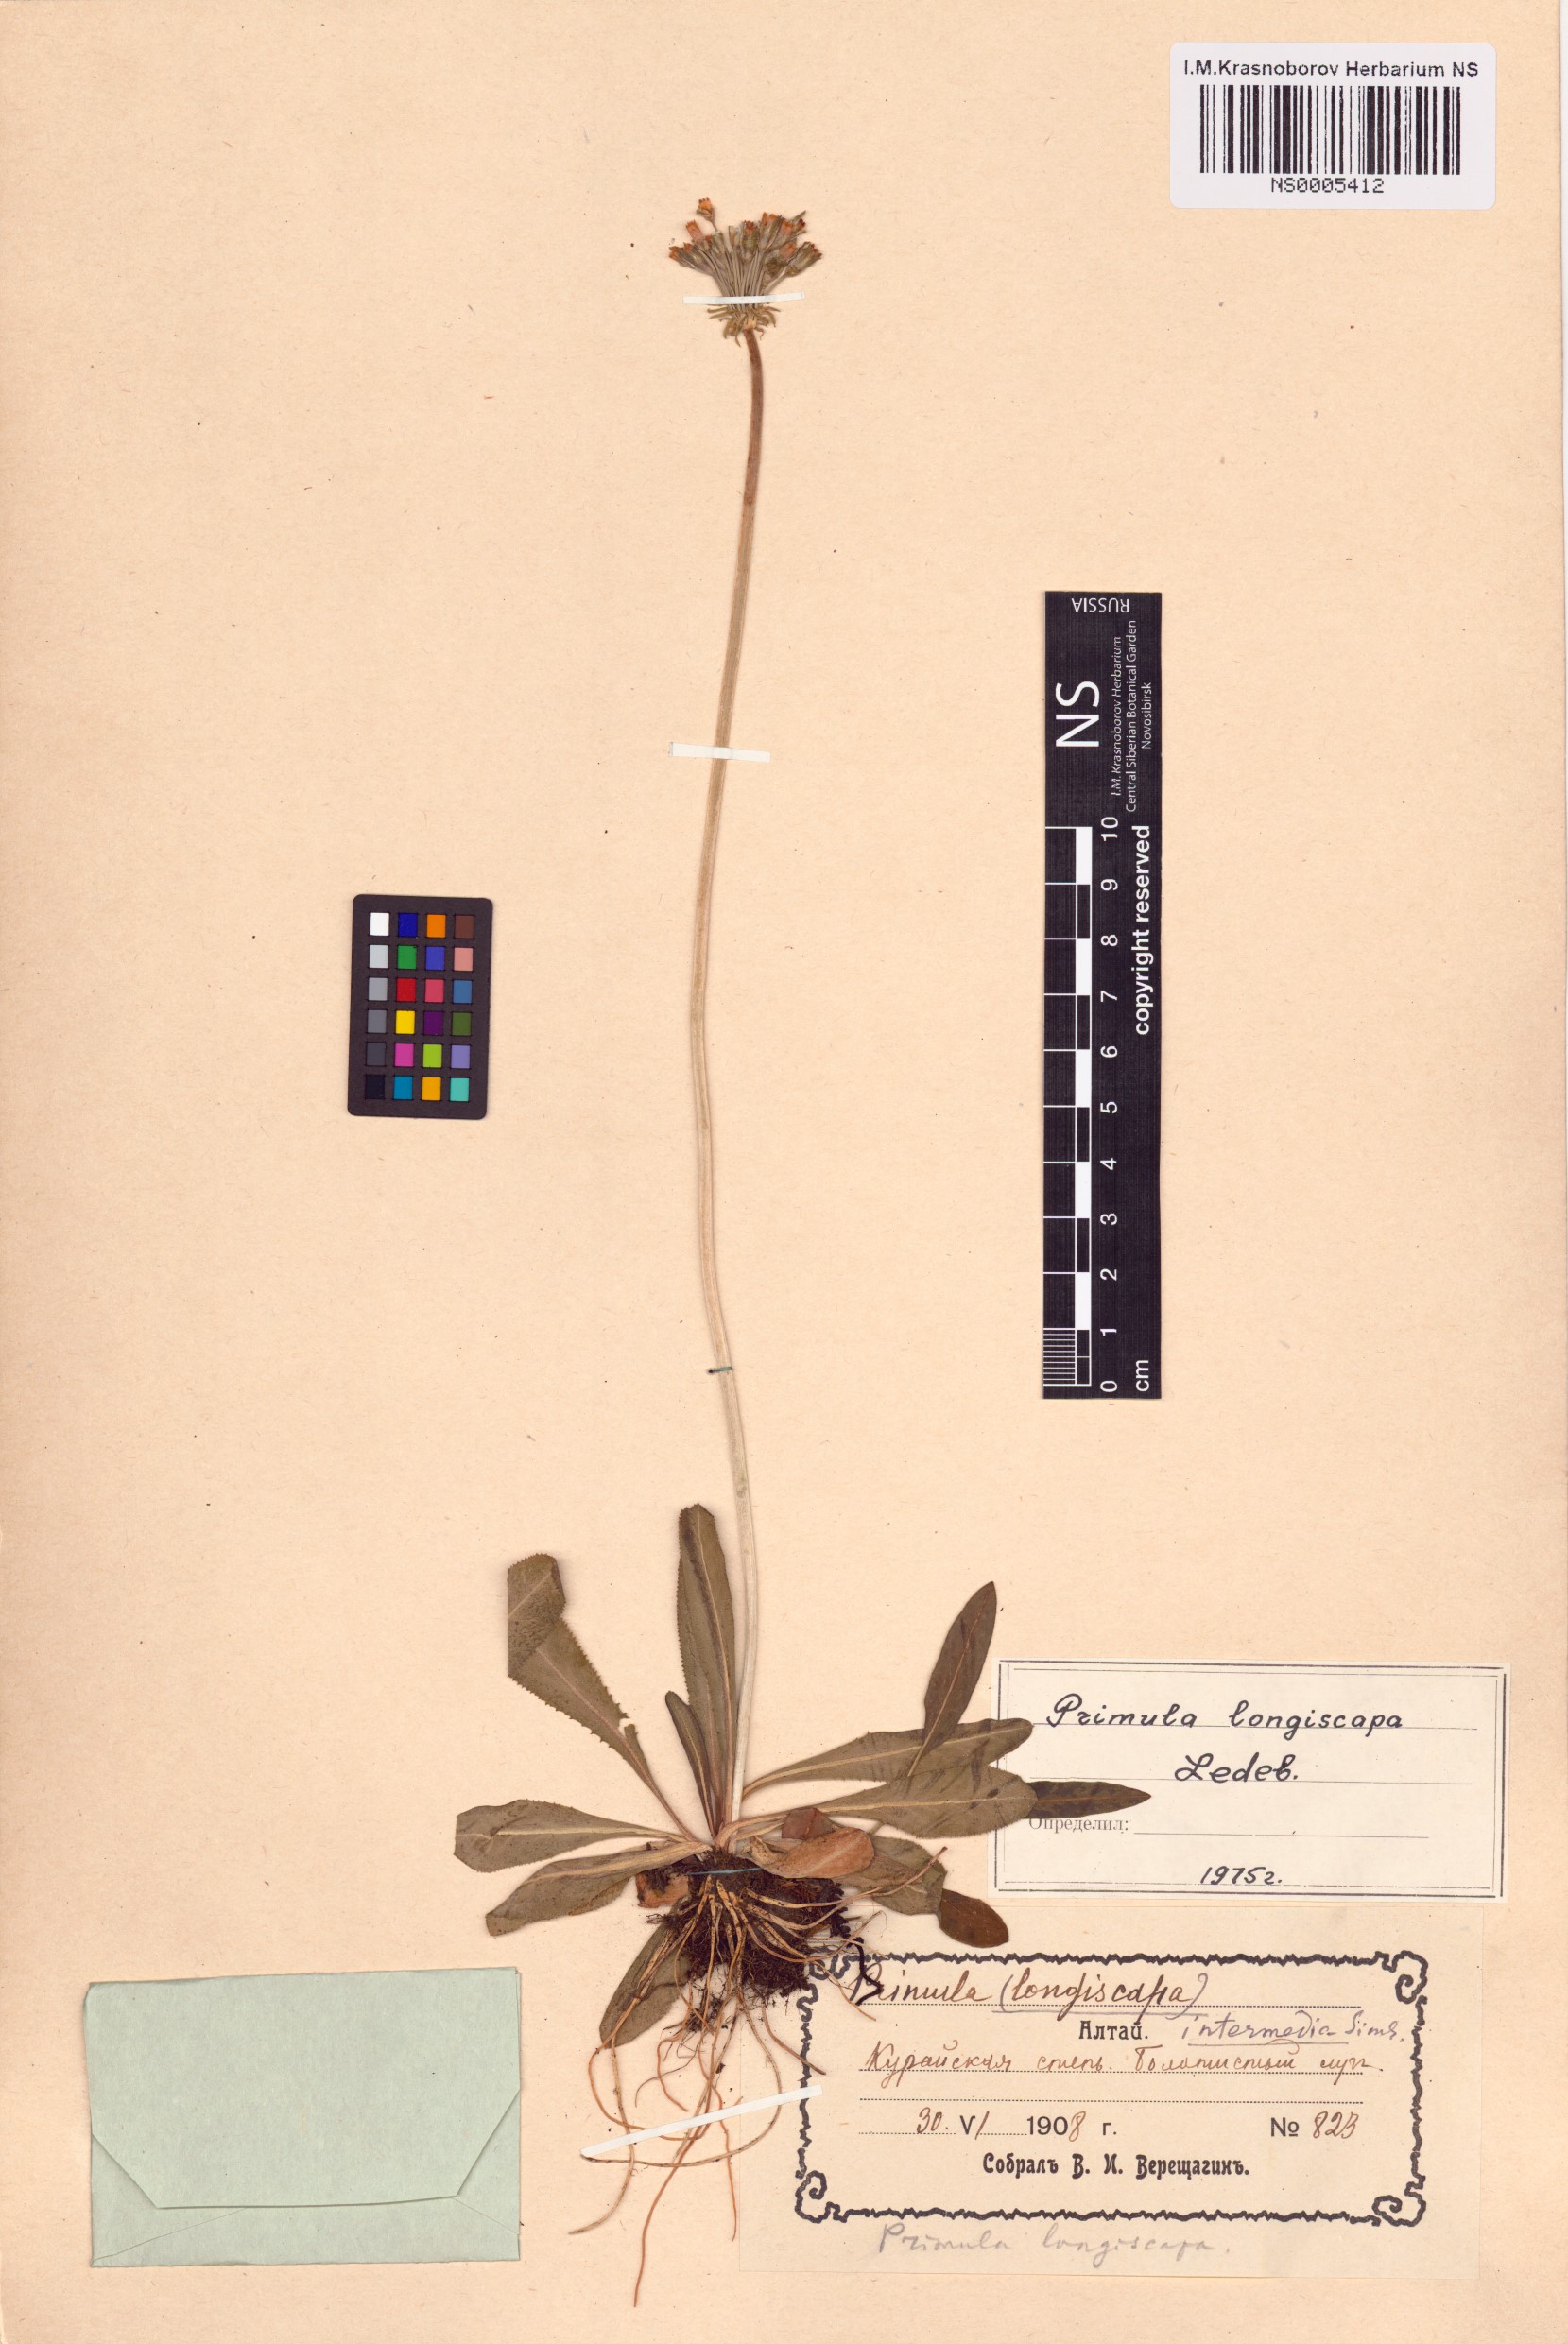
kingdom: Plantae
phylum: Tracheophyta
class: Magnoliopsida
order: Ericales
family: Primulaceae
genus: Primula
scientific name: Primula longiscapa
